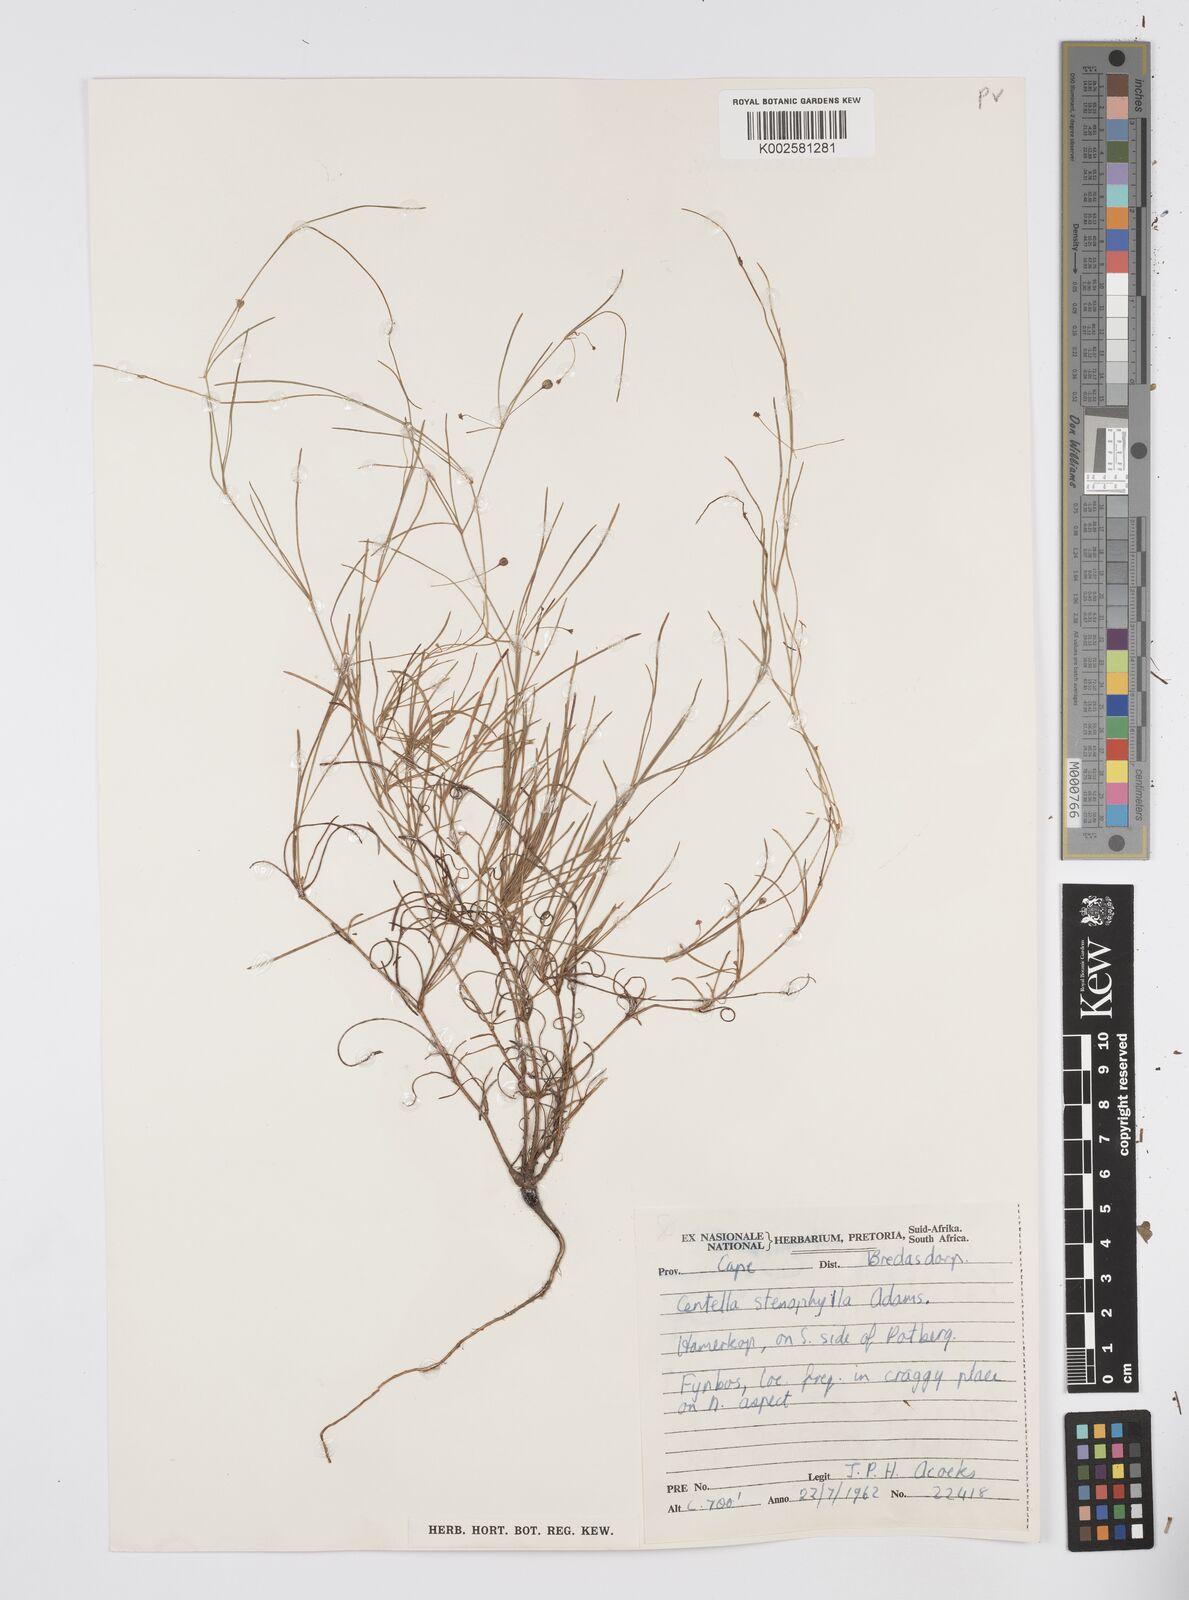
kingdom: Plantae
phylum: Tracheophyta
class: Magnoliopsida
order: Apiales
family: Apiaceae
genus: Centella
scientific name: Centella stenophylla
